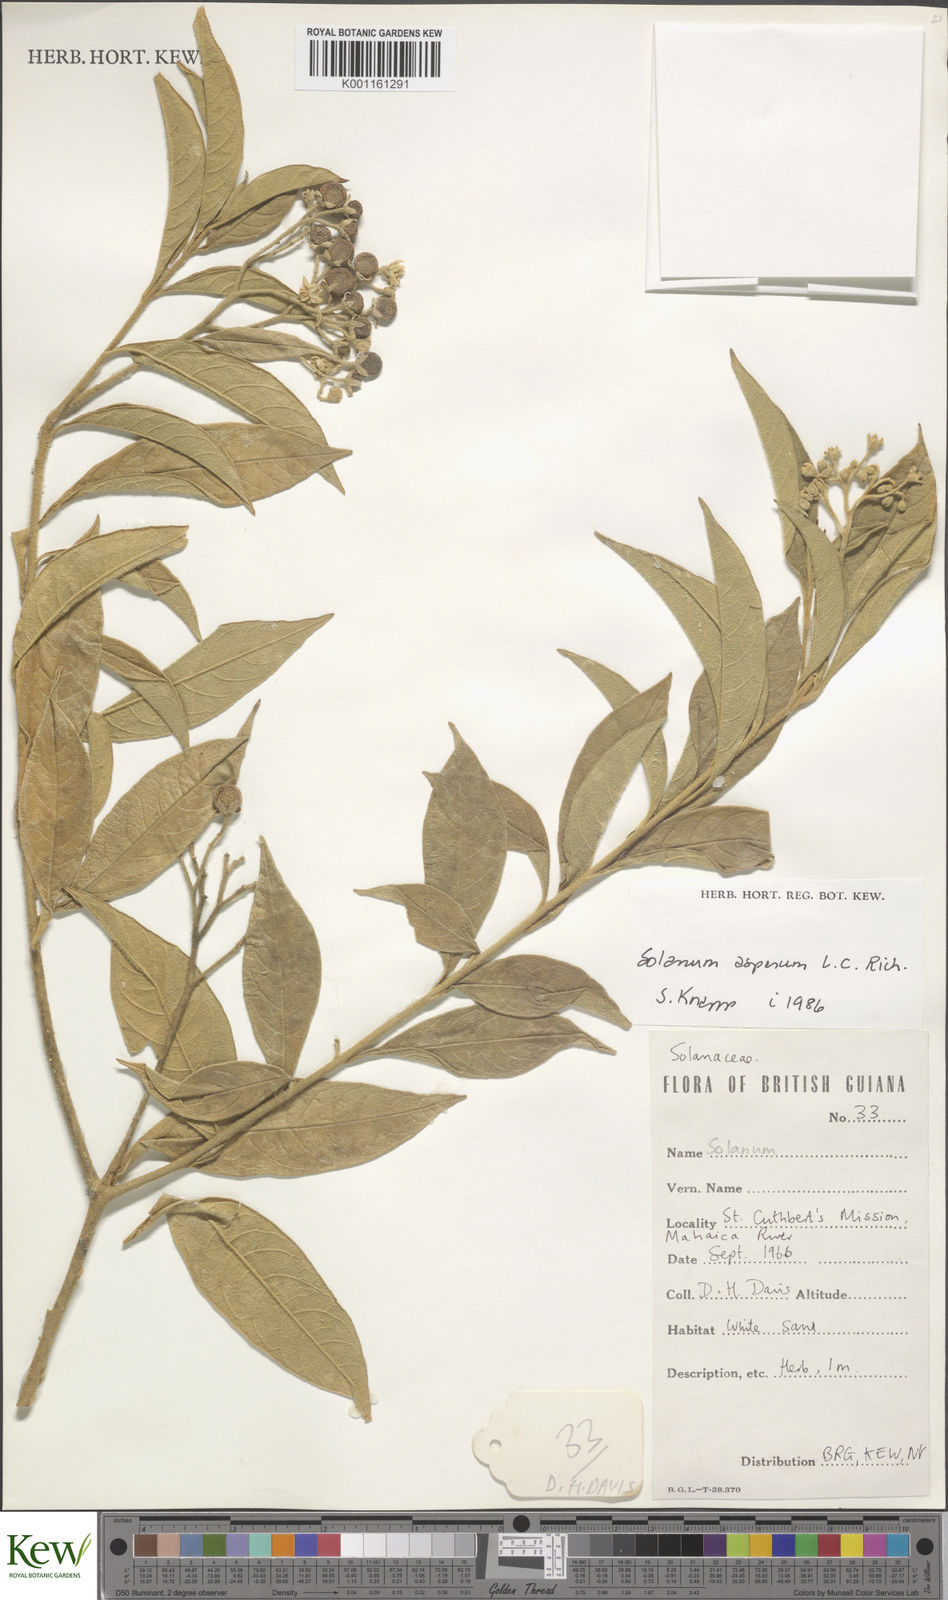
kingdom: Plantae
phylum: Tracheophyta
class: Magnoliopsida
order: Solanales
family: Solanaceae
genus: Solanum
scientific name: Solanum asperum
